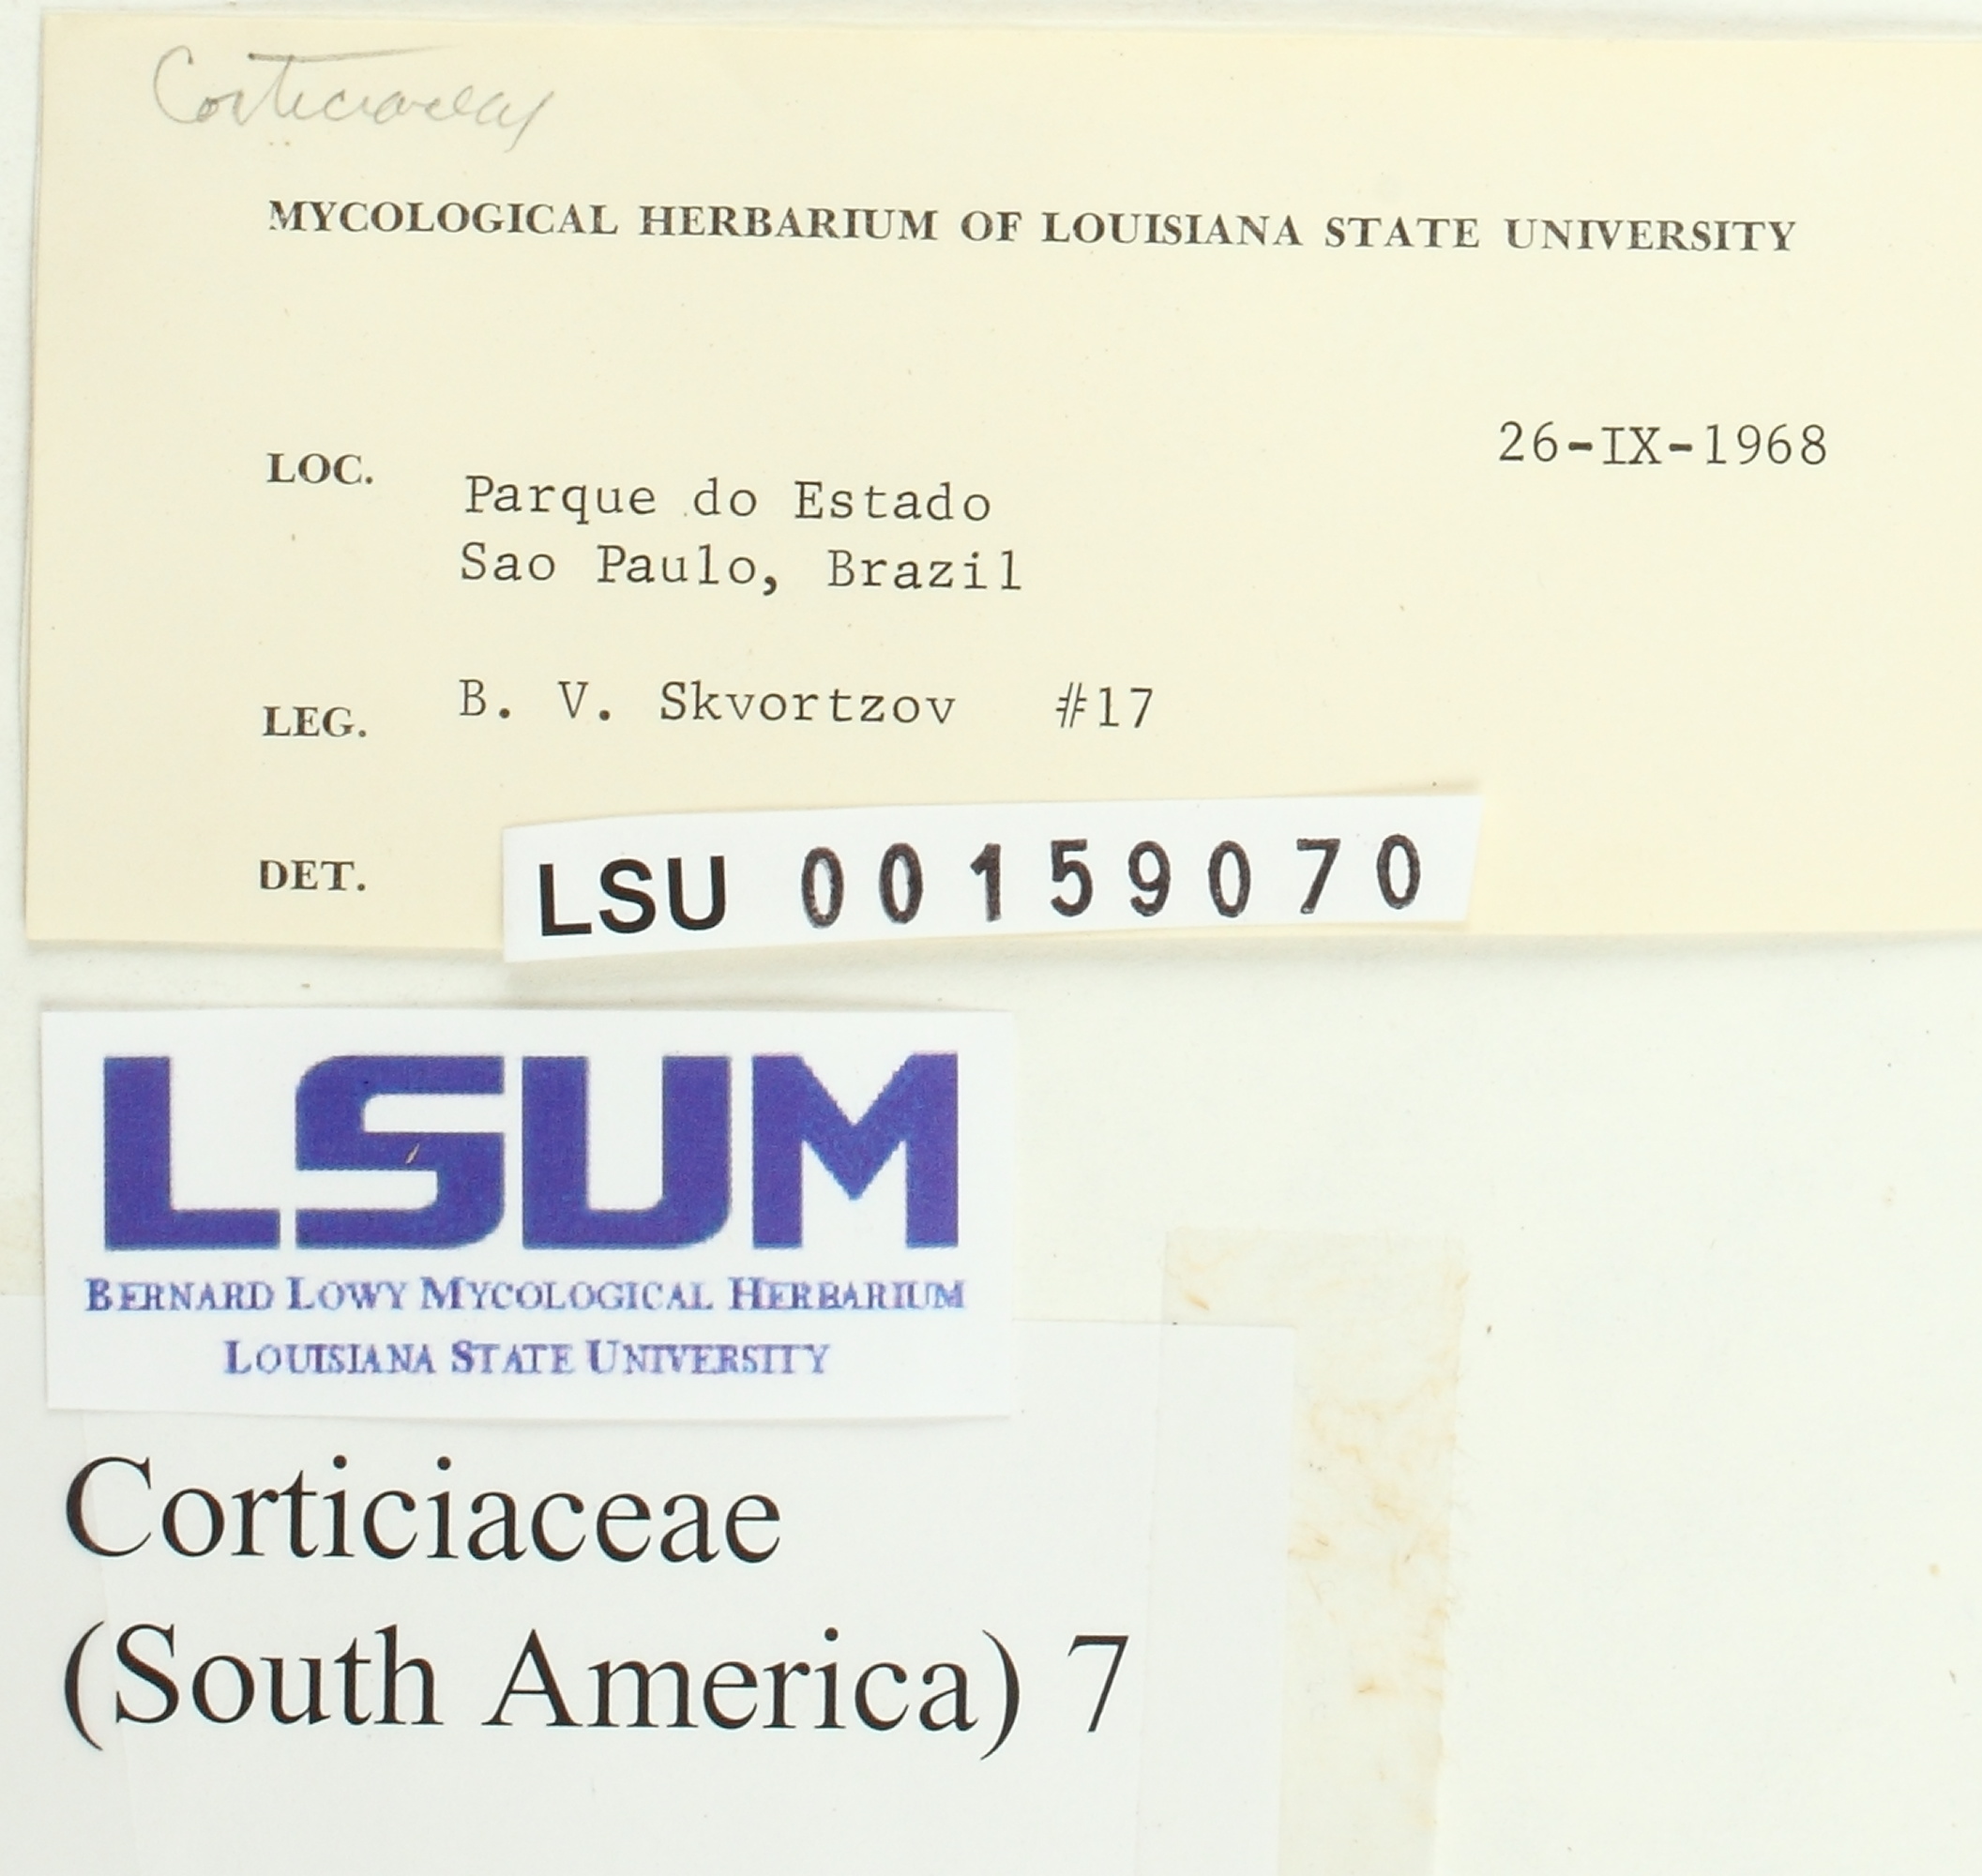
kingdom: Fungi
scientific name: Fungi
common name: Fungi
